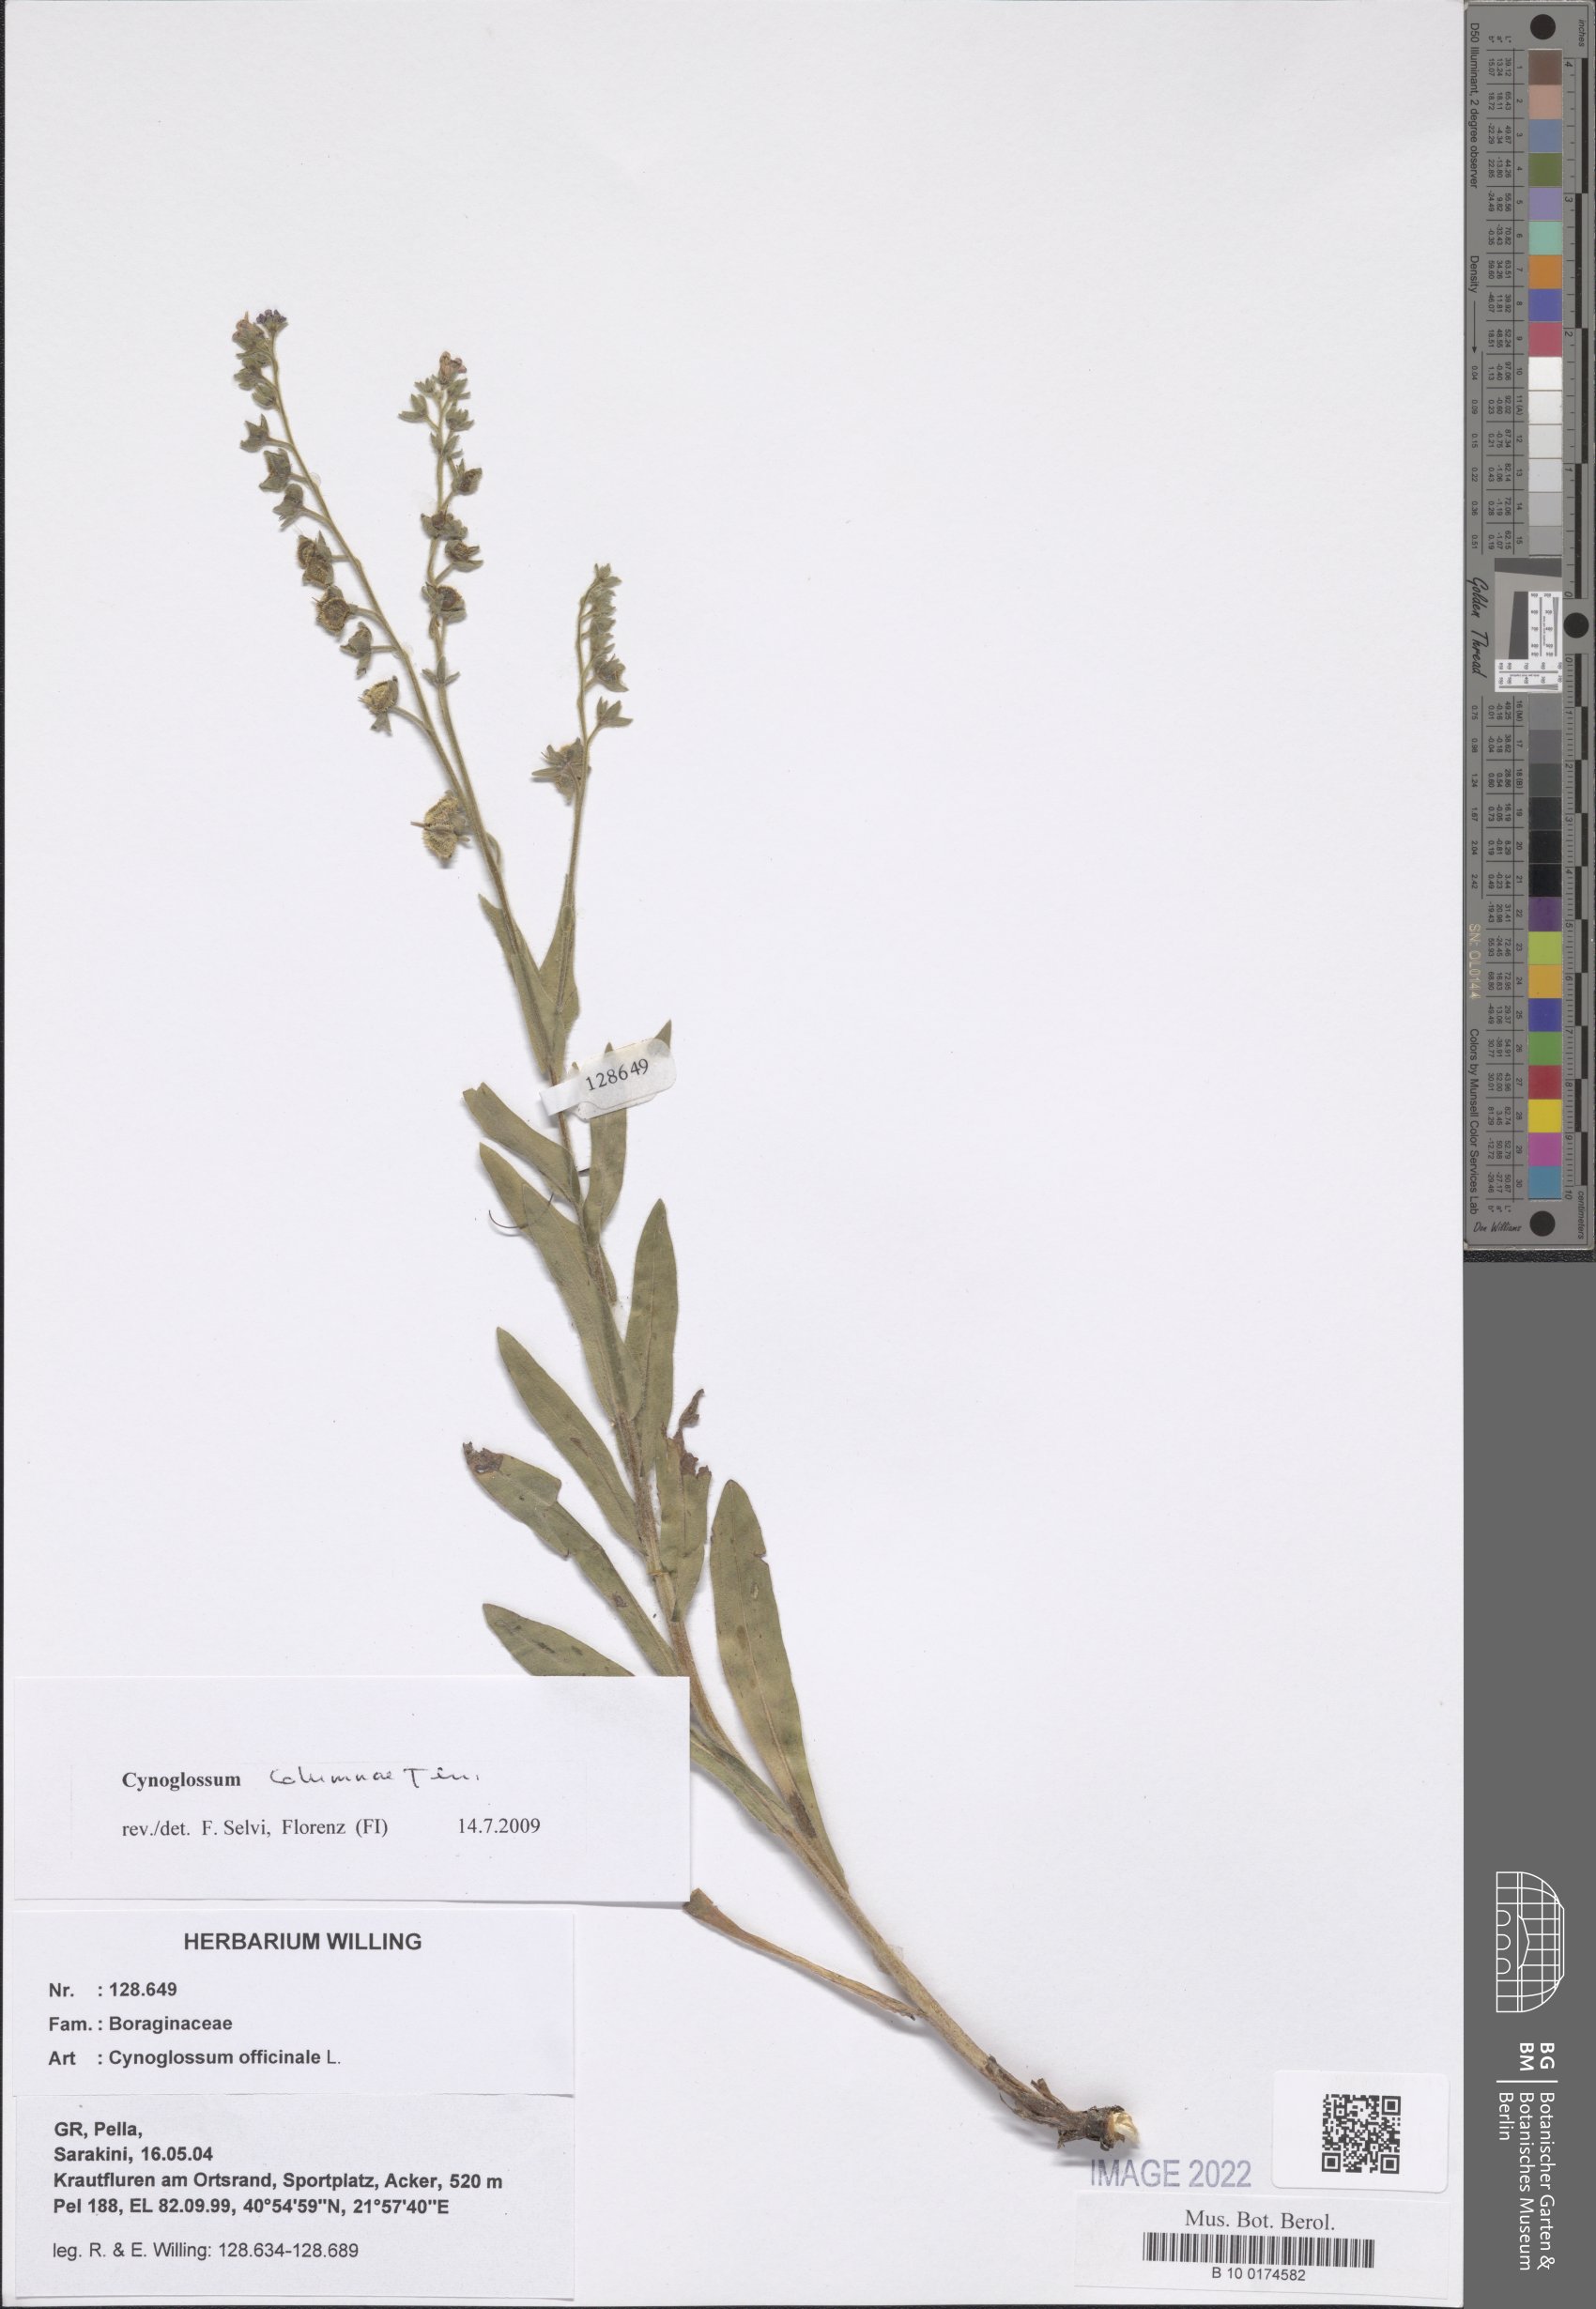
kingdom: Plantae
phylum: Tracheophyta
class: Magnoliopsida
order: Boraginales
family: Boraginaceae
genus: Rindera
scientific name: Rindera columnae
